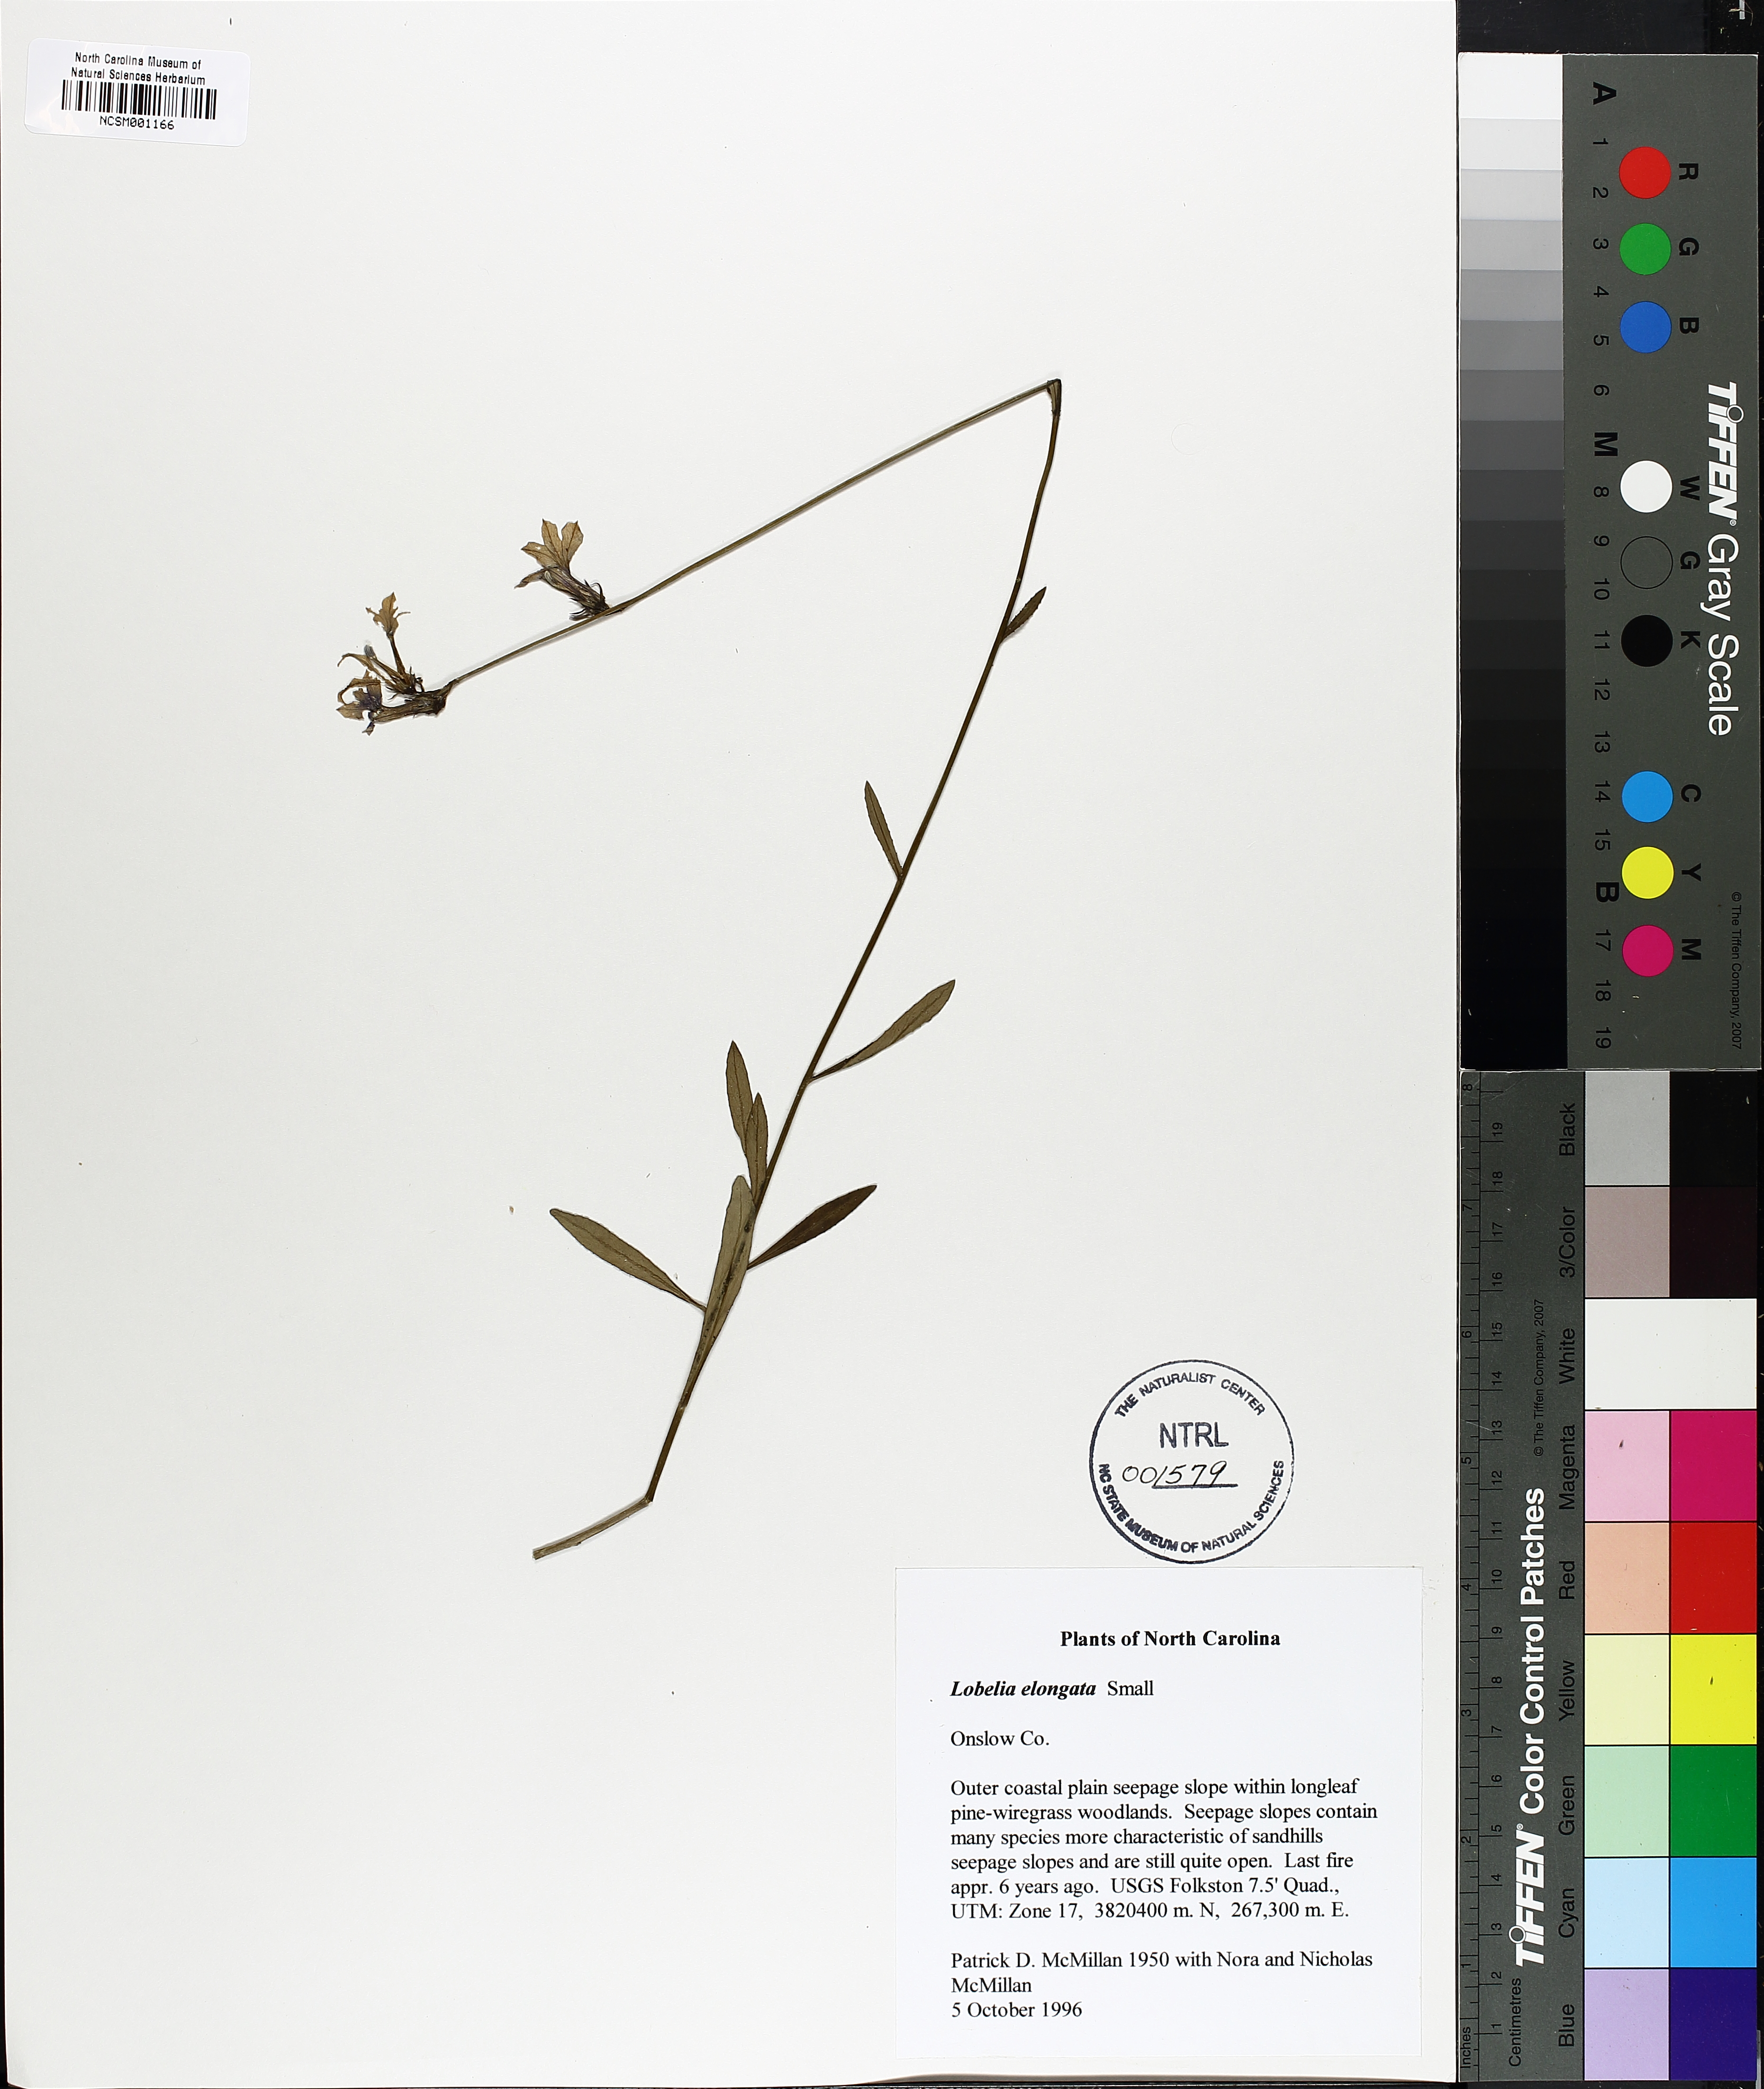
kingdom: Plantae
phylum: Tracheophyta
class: Magnoliopsida
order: Asterales
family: Campanulaceae
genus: Lobelia
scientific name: Lobelia elongata
